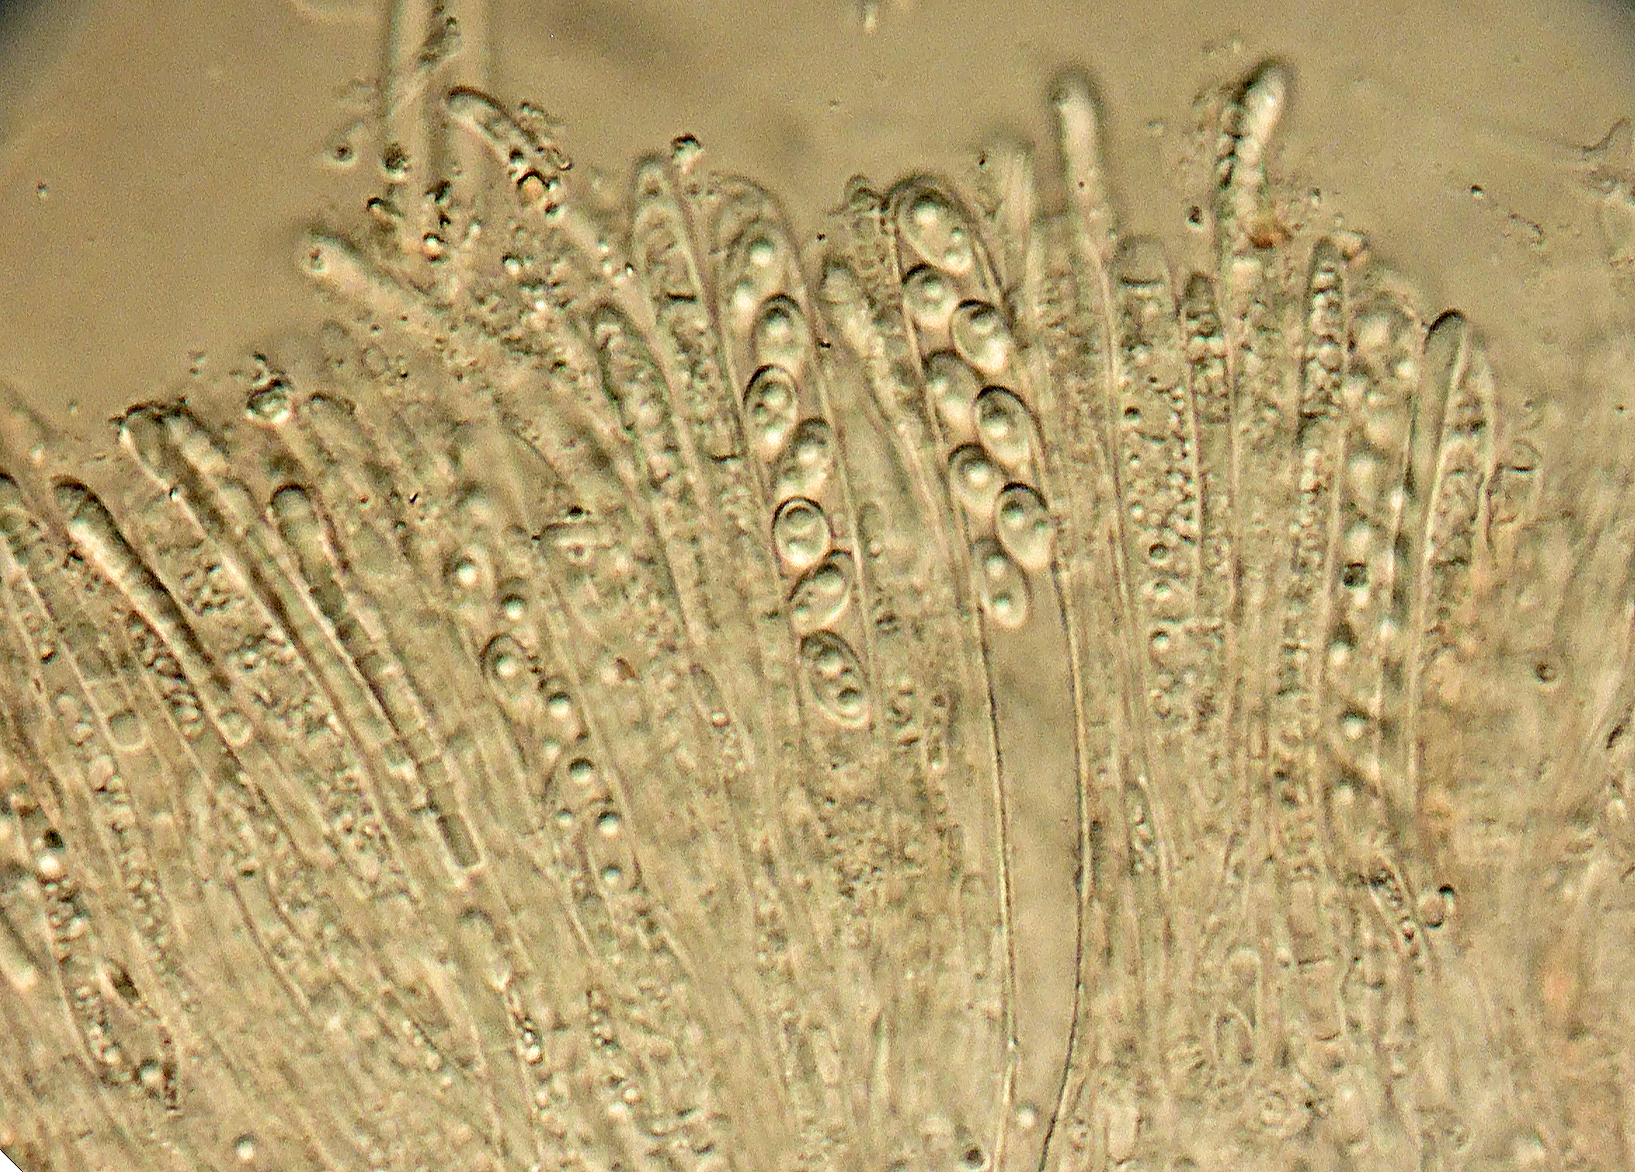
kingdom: Fungi
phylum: Ascomycota
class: Leotiomycetes
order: Helotiales
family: Gelatinodiscaceae
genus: Ombrophila
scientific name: Ombrophila janthina
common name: viol-bævreskive
